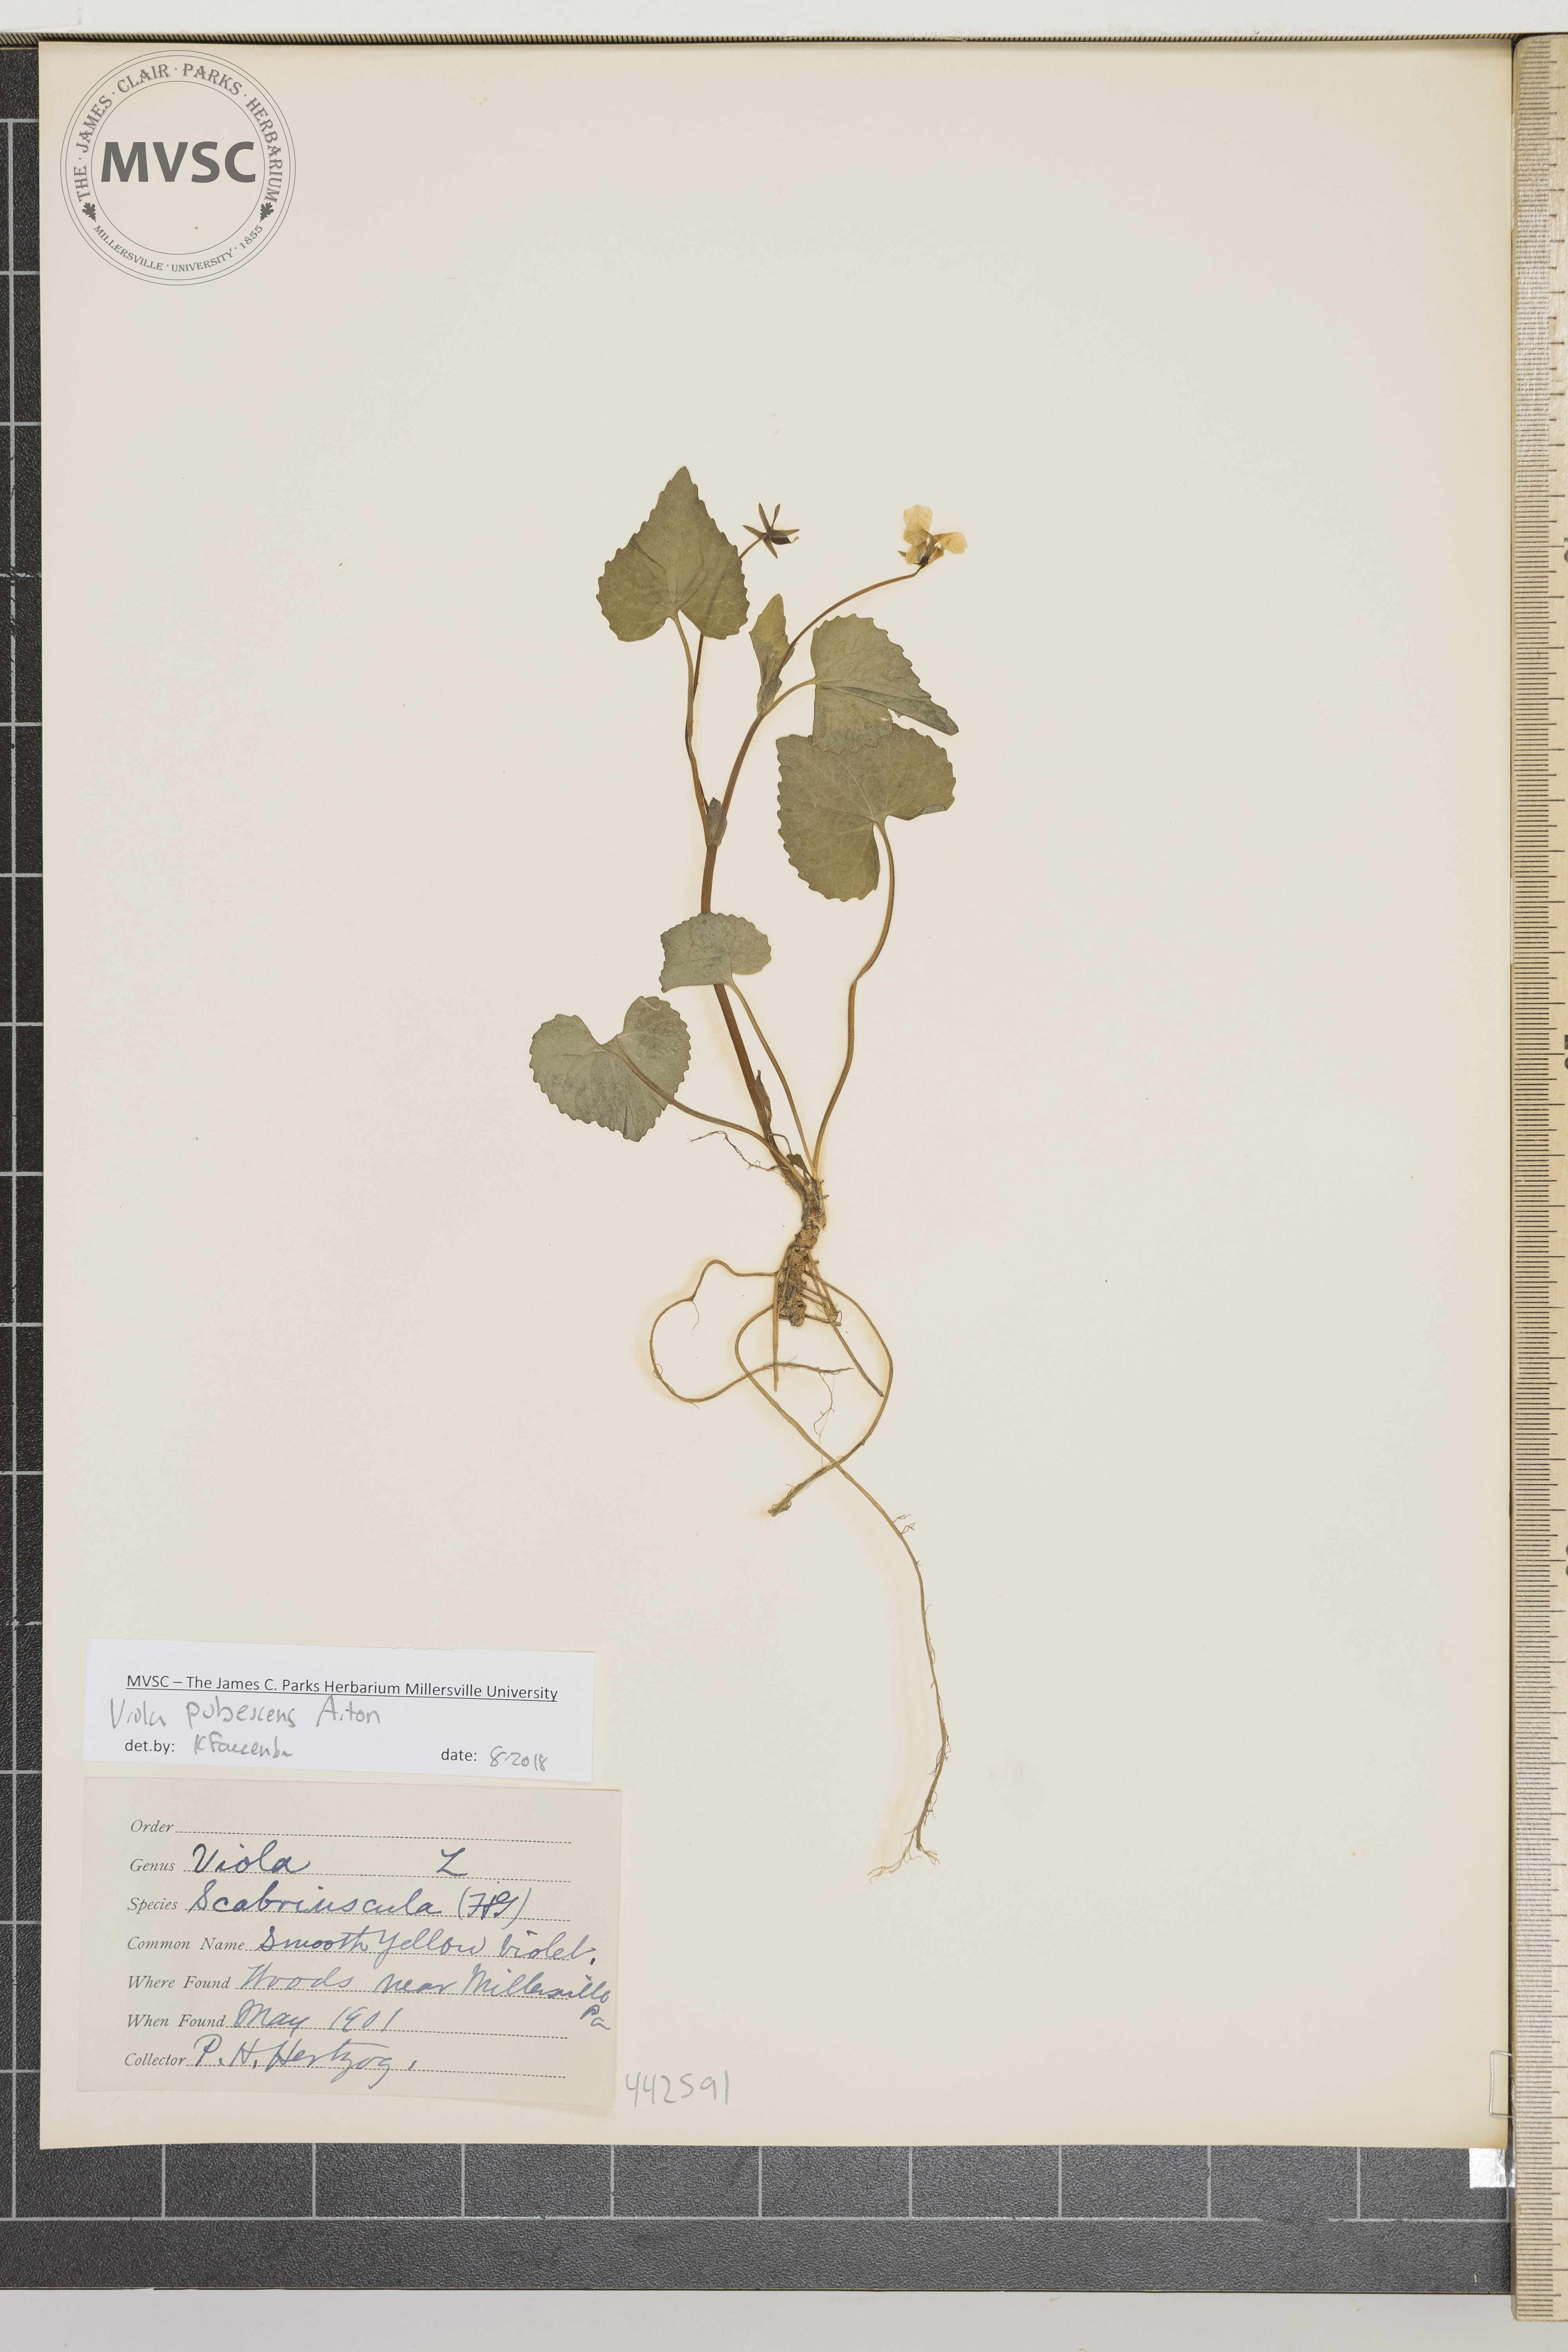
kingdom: Plantae
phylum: Tracheophyta
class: Magnoliopsida
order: Malpighiales
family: Violaceae
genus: Viola
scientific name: Viola pubescens
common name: Smooth yellow violet
